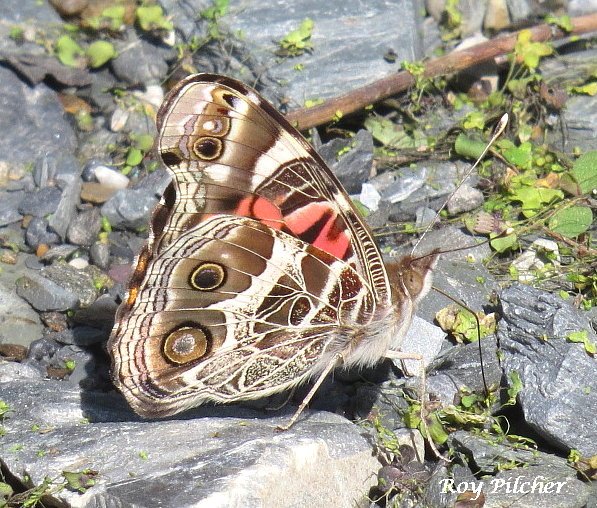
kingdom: Animalia
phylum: Arthropoda
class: Insecta
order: Lepidoptera
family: Nymphalidae
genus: Vanessa
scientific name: Vanessa virginiensis
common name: American Lady
